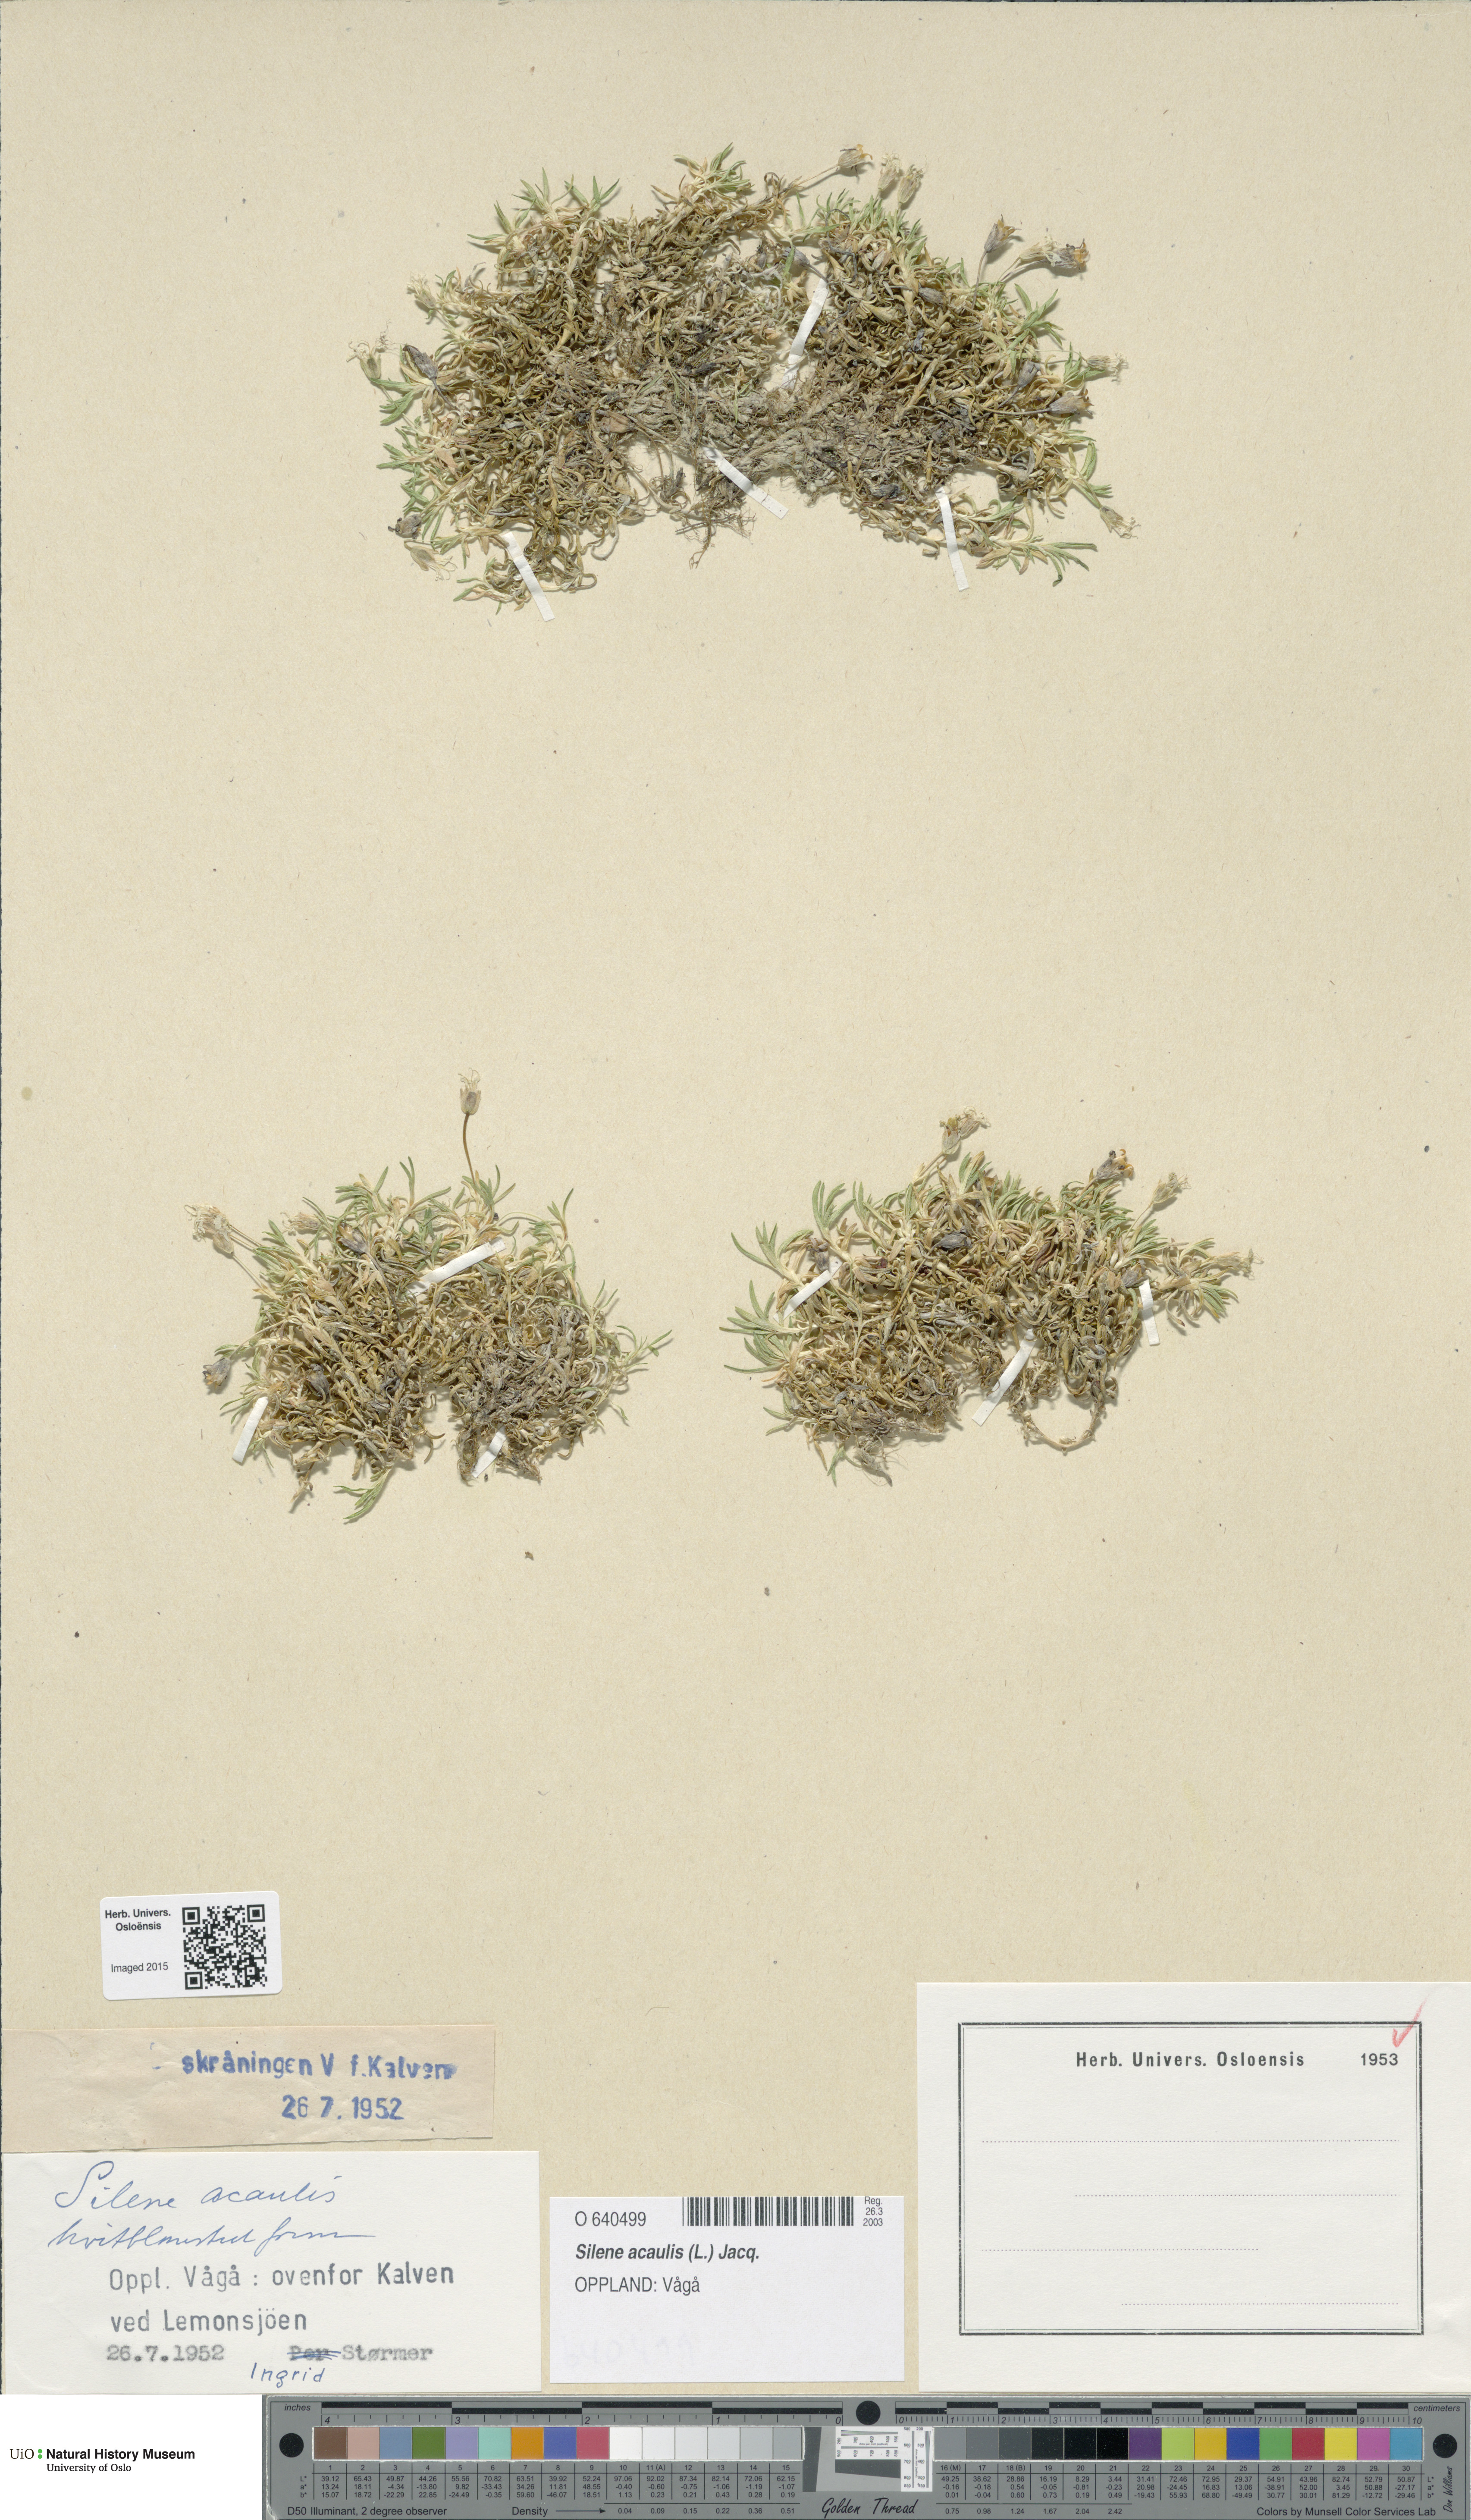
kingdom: Plantae
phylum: Tracheophyta
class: Magnoliopsida
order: Caryophyllales
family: Caryophyllaceae
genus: Silene
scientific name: Silene acaulis
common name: Moss campion
